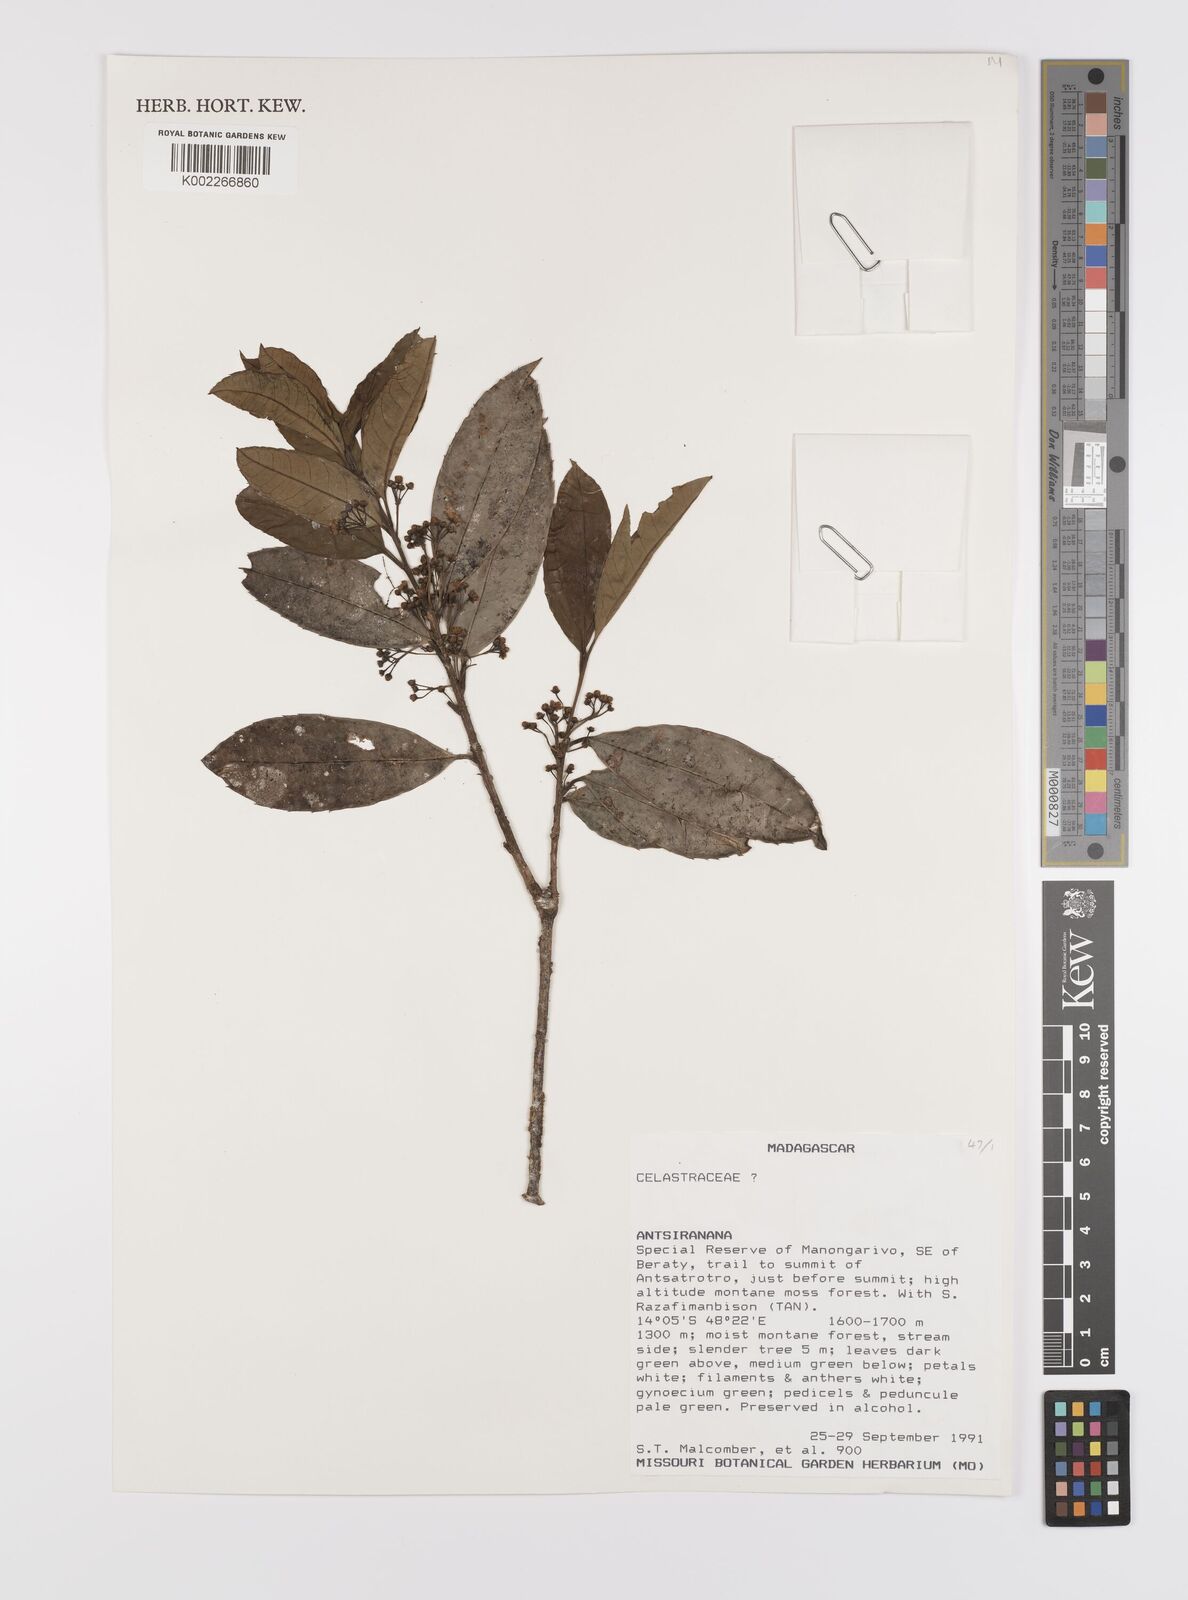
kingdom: Plantae
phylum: Tracheophyta
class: Magnoliopsida
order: Celastrales
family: Celastraceae
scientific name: Celastraceae
